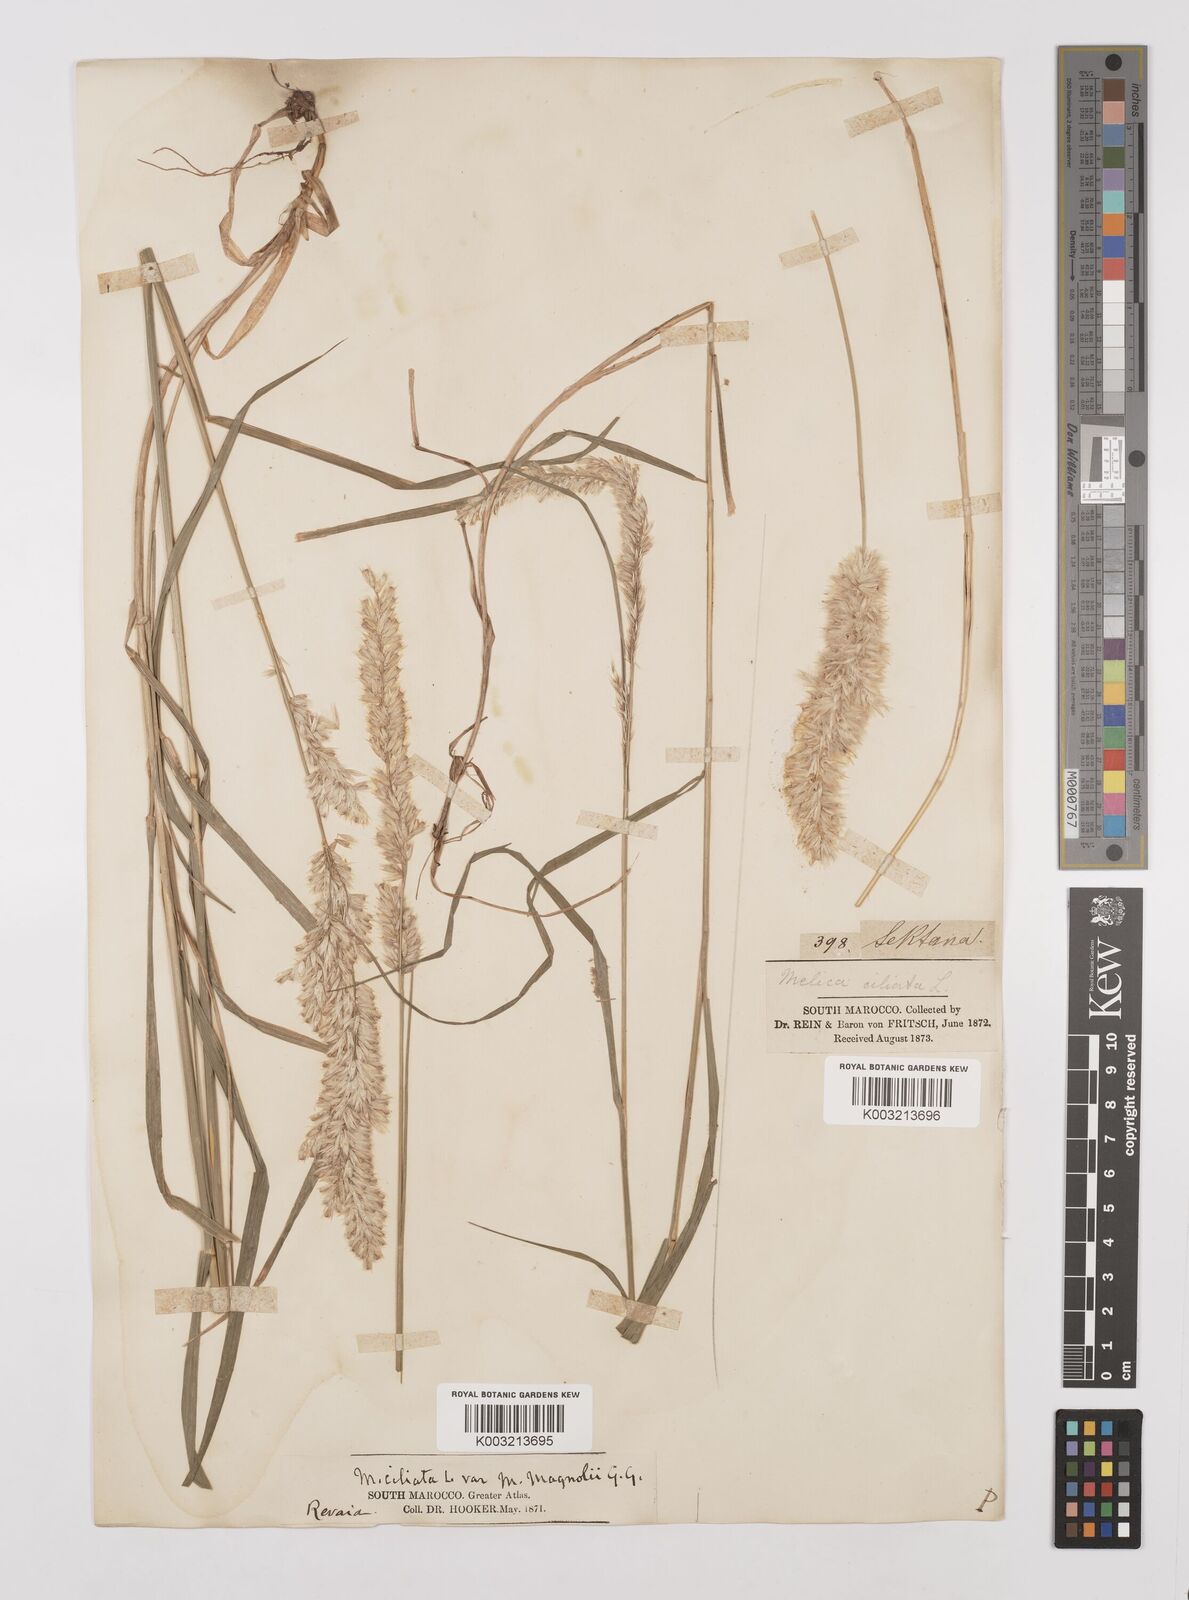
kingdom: Plantae
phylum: Tracheophyta
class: Liliopsida
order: Poales
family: Poaceae
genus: Melica
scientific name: Melica ciliata
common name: Hairy melicgrass
